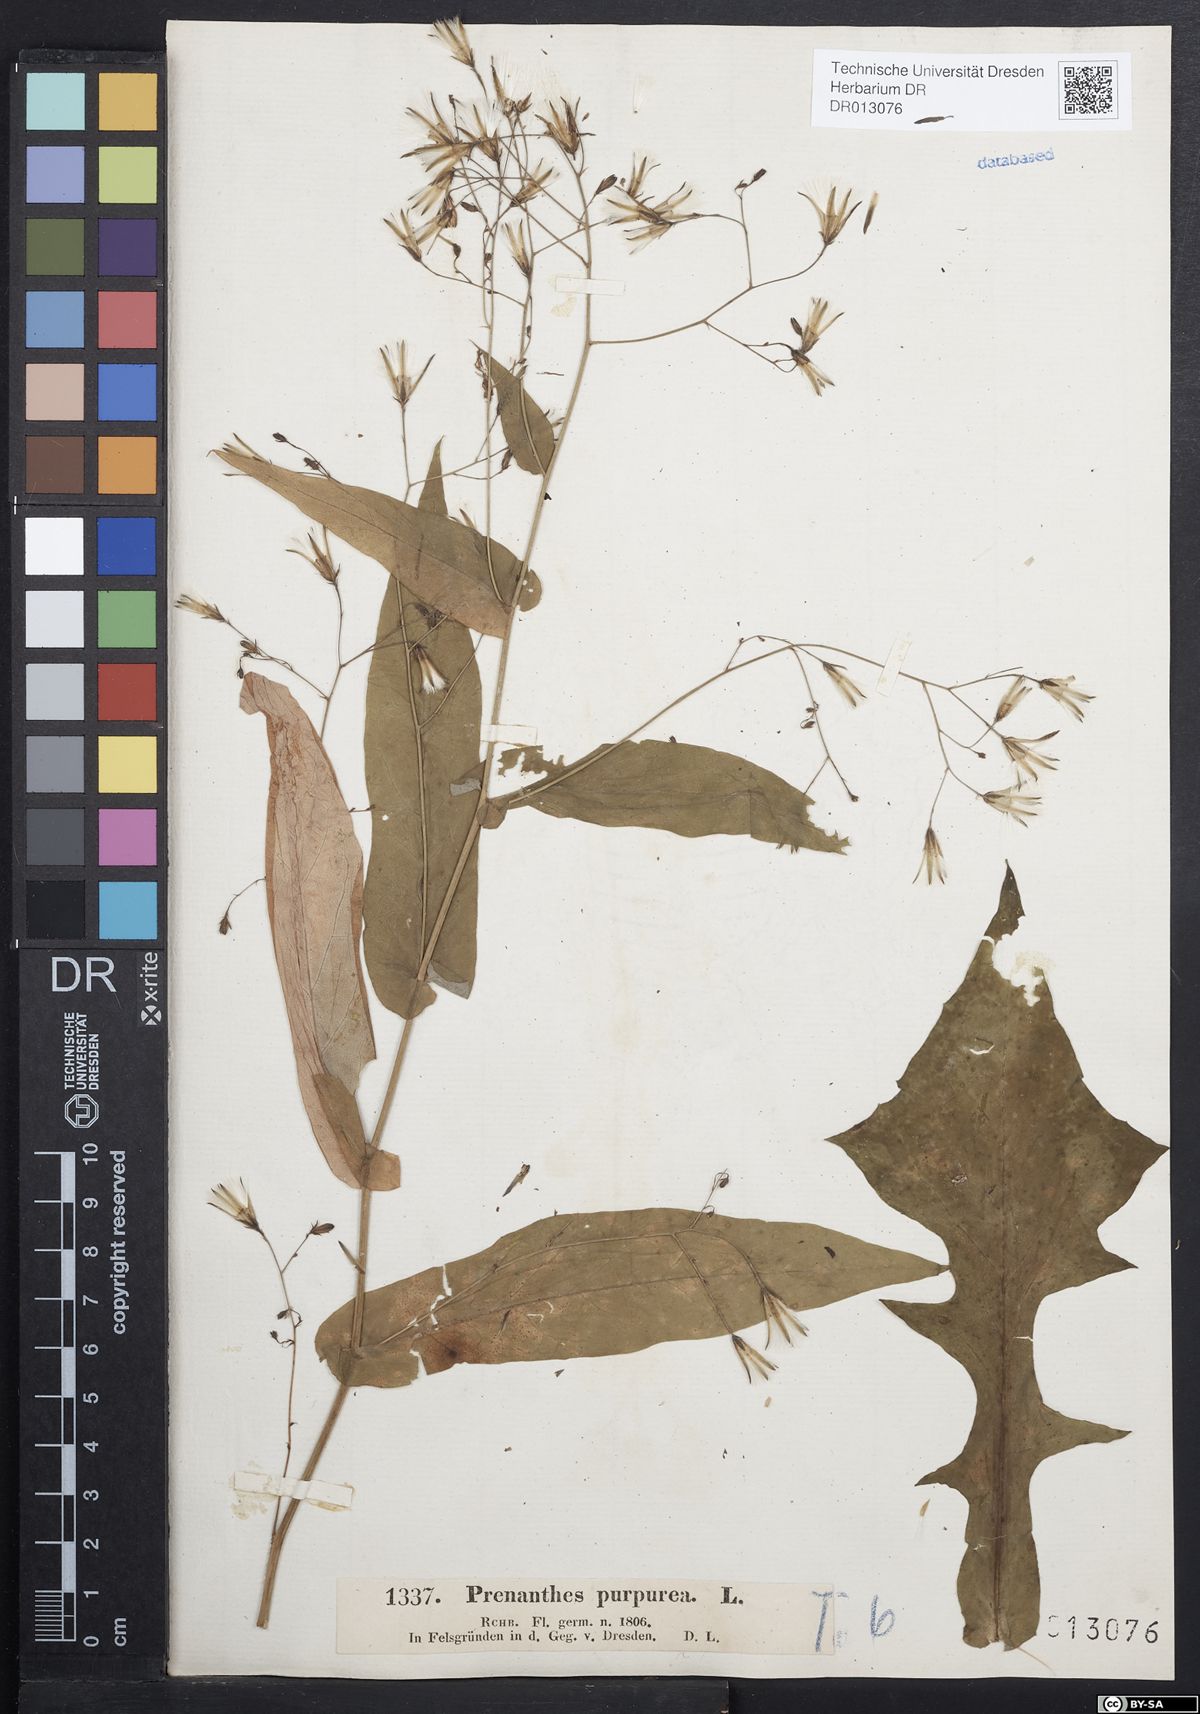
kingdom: Plantae
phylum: Tracheophyta
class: Magnoliopsida
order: Asterales
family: Asteraceae
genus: Prenanthes
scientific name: Prenanthes purpurea
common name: Purple lettuce
